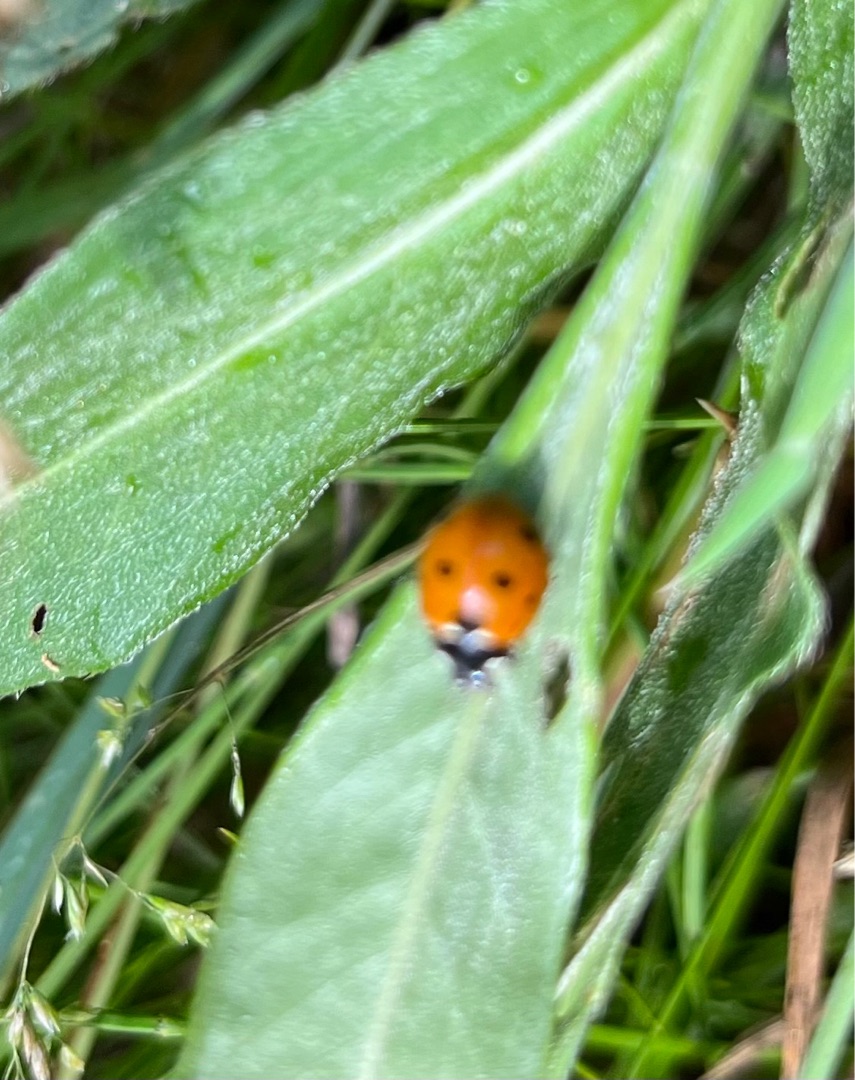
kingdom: Animalia
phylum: Arthropoda
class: Insecta
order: Coleoptera
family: Coccinellidae
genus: Coccinella
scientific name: Coccinella septempunctata
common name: Syvplettet mariehøne
